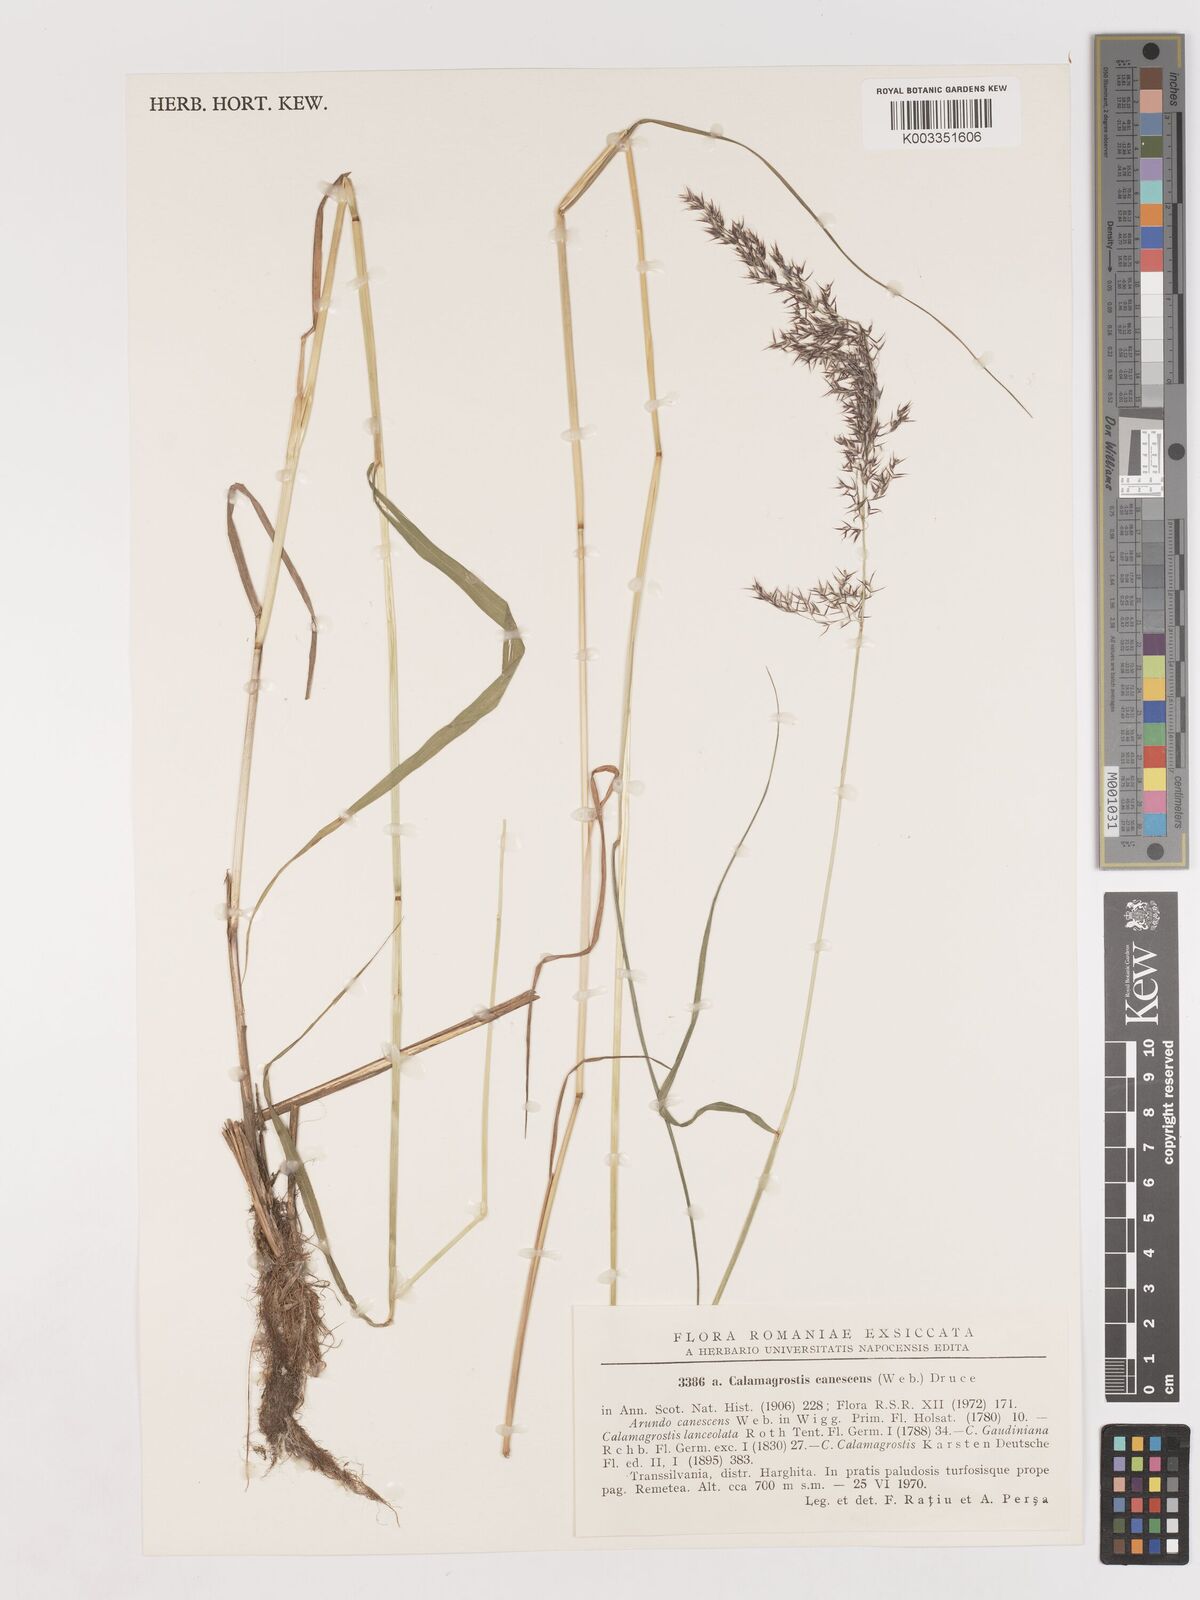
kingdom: Plantae
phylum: Tracheophyta
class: Liliopsida
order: Poales
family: Poaceae
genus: Calamagrostis
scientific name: Calamagrostis canescens
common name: Purple small-reed
